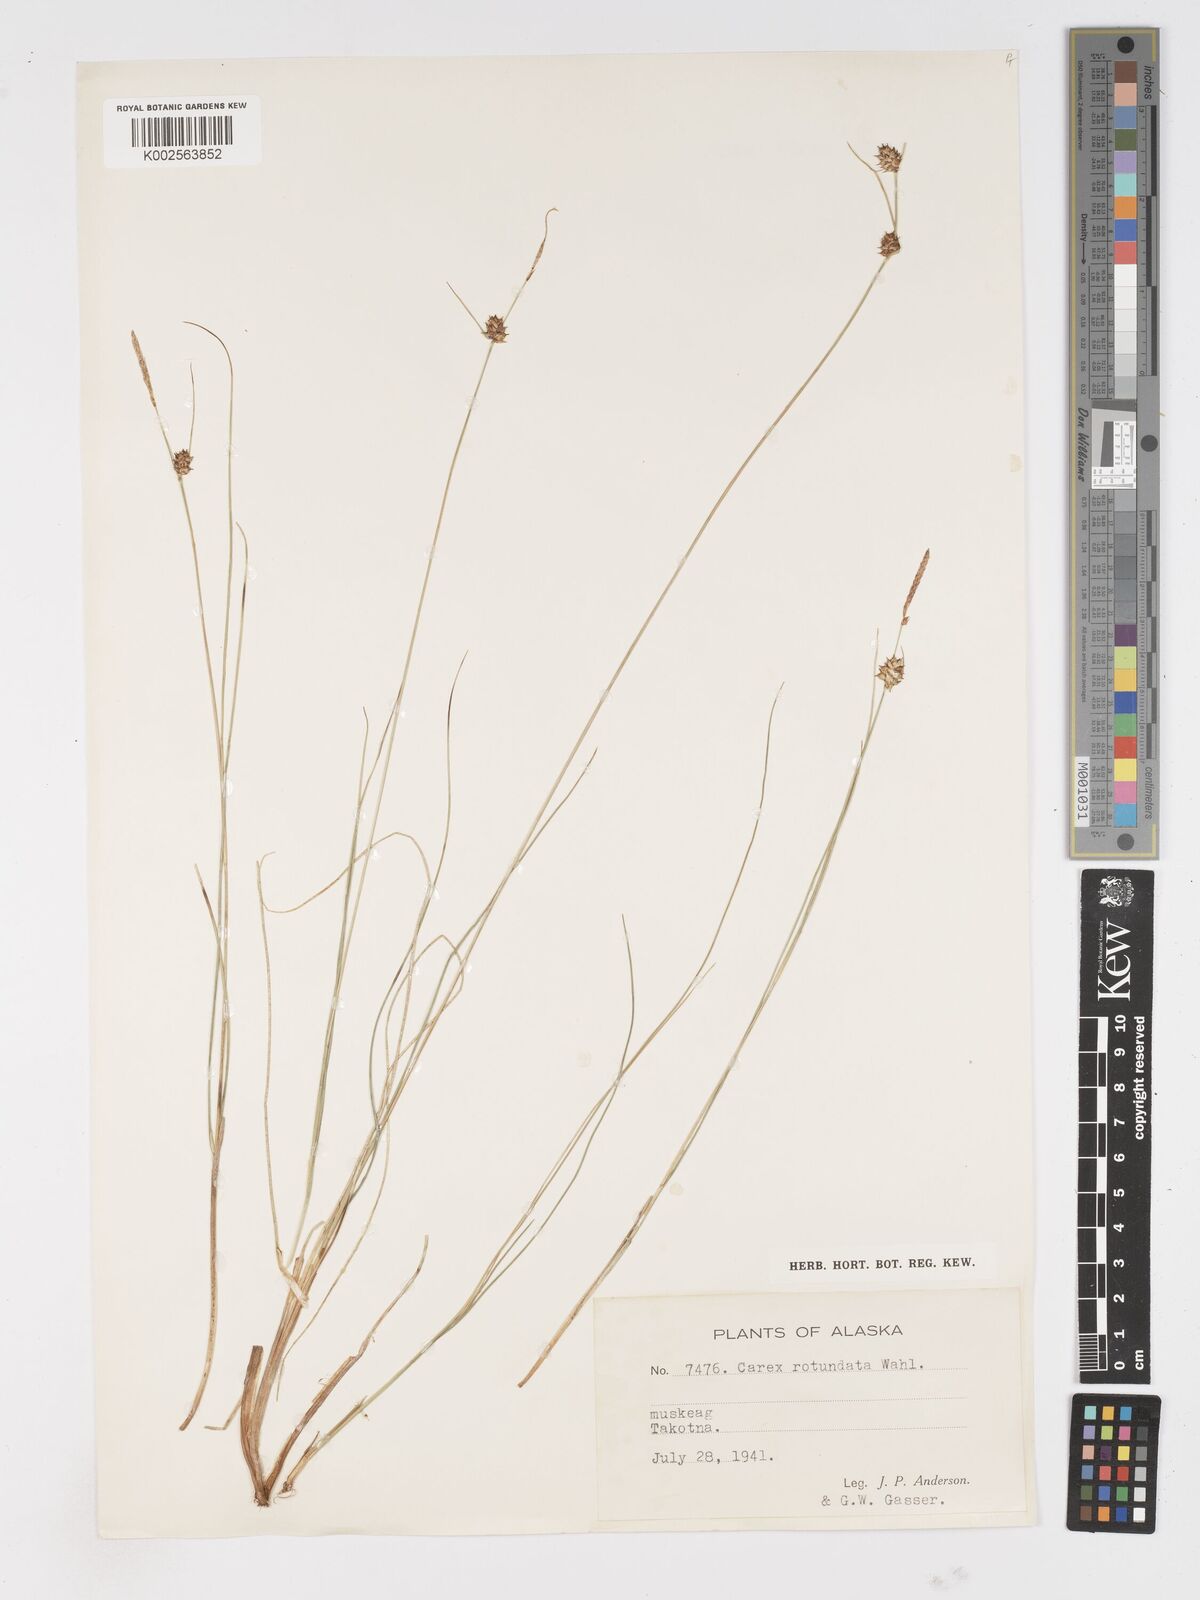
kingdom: Plantae
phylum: Tracheophyta
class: Liliopsida
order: Poales
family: Cyperaceae
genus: Carex
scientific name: Carex rotundata
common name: Round-fruited sedge
